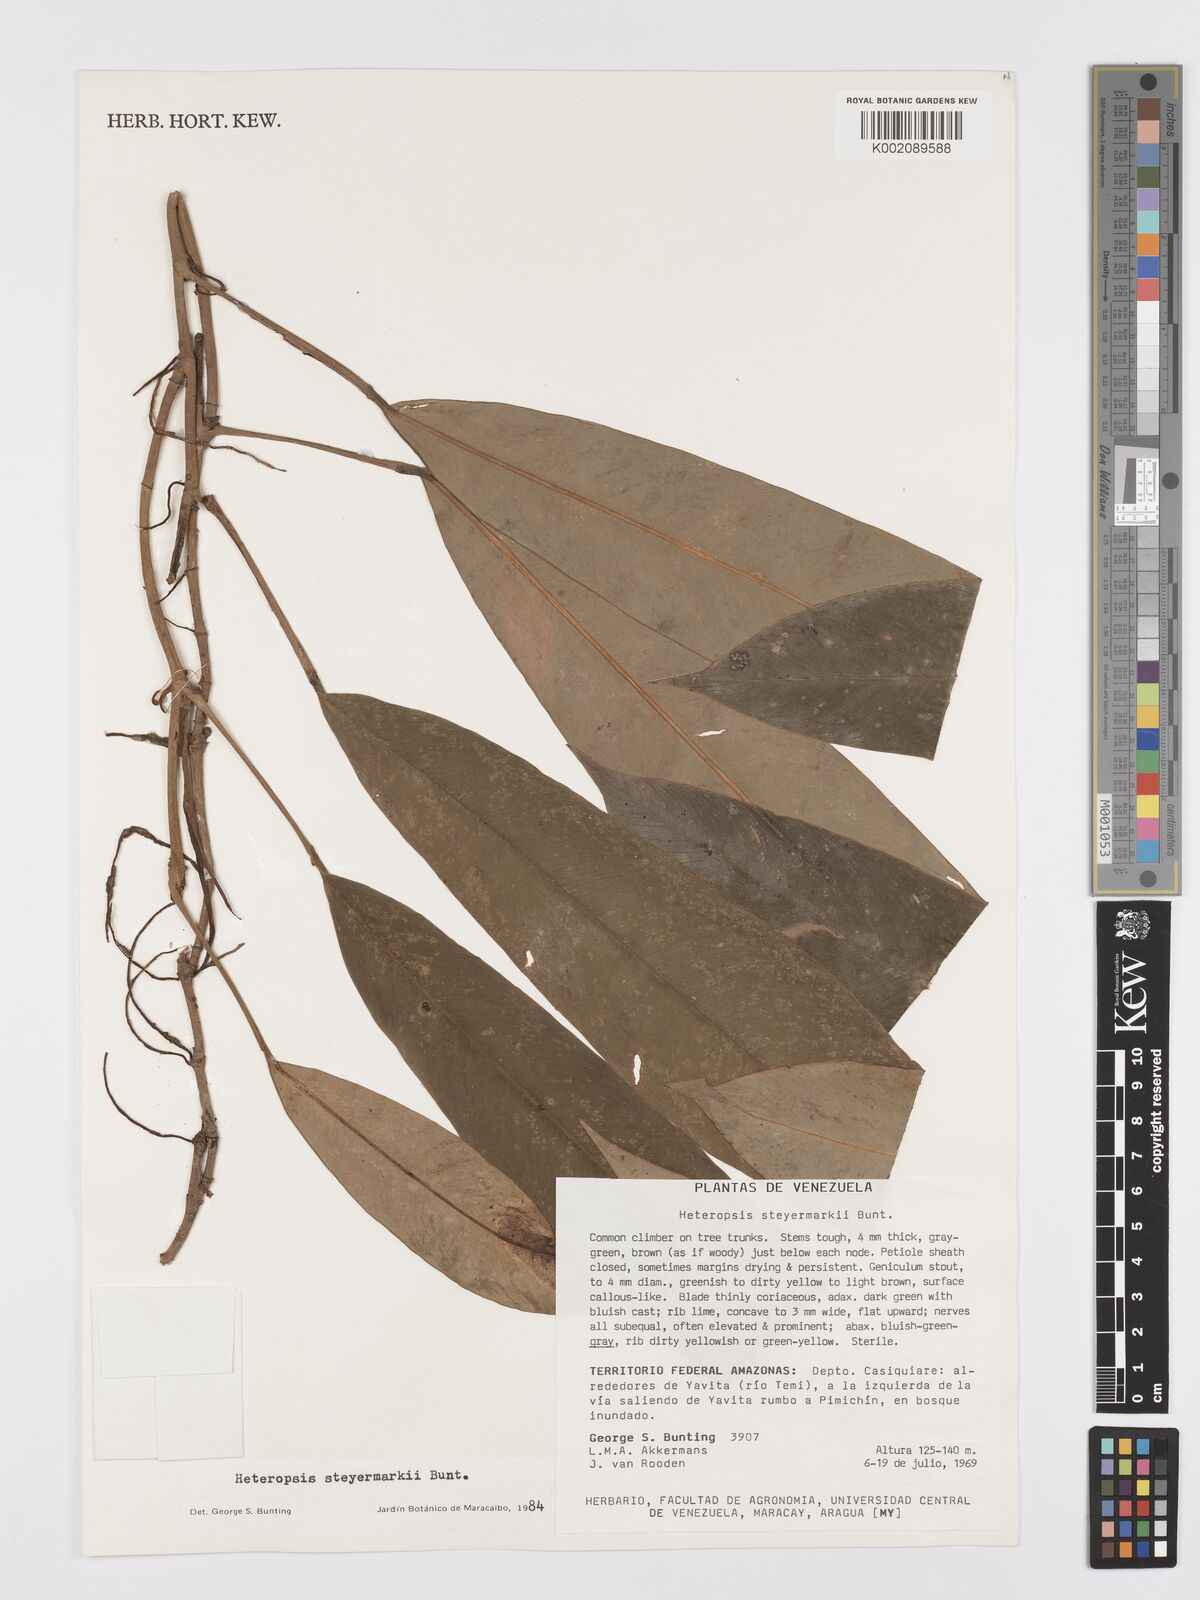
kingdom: Plantae
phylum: Tracheophyta
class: Liliopsida
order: Alismatales
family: Araceae
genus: Heteropsis
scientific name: Heteropsis steyermarkii
